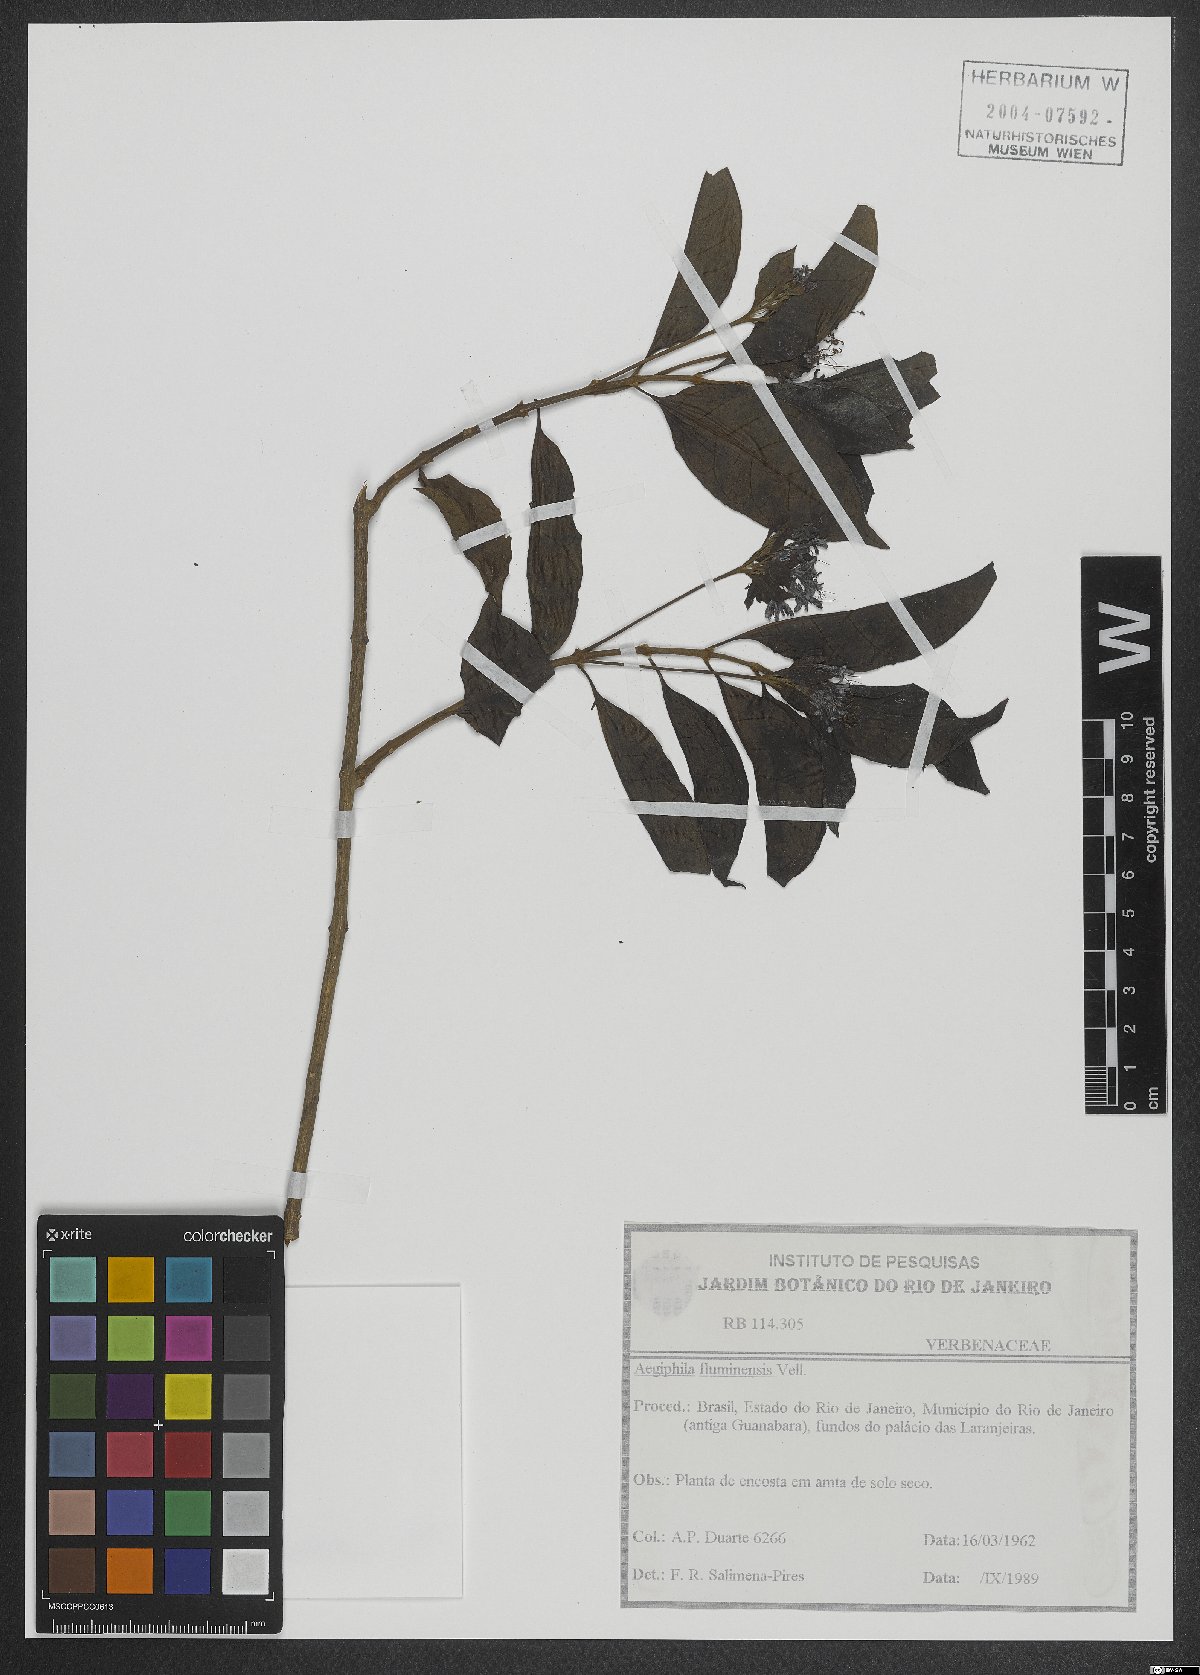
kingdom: Plantae
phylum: Tracheophyta
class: Magnoliopsida
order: Lamiales
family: Lamiaceae
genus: Aegiphila
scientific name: Aegiphila fluminensis
